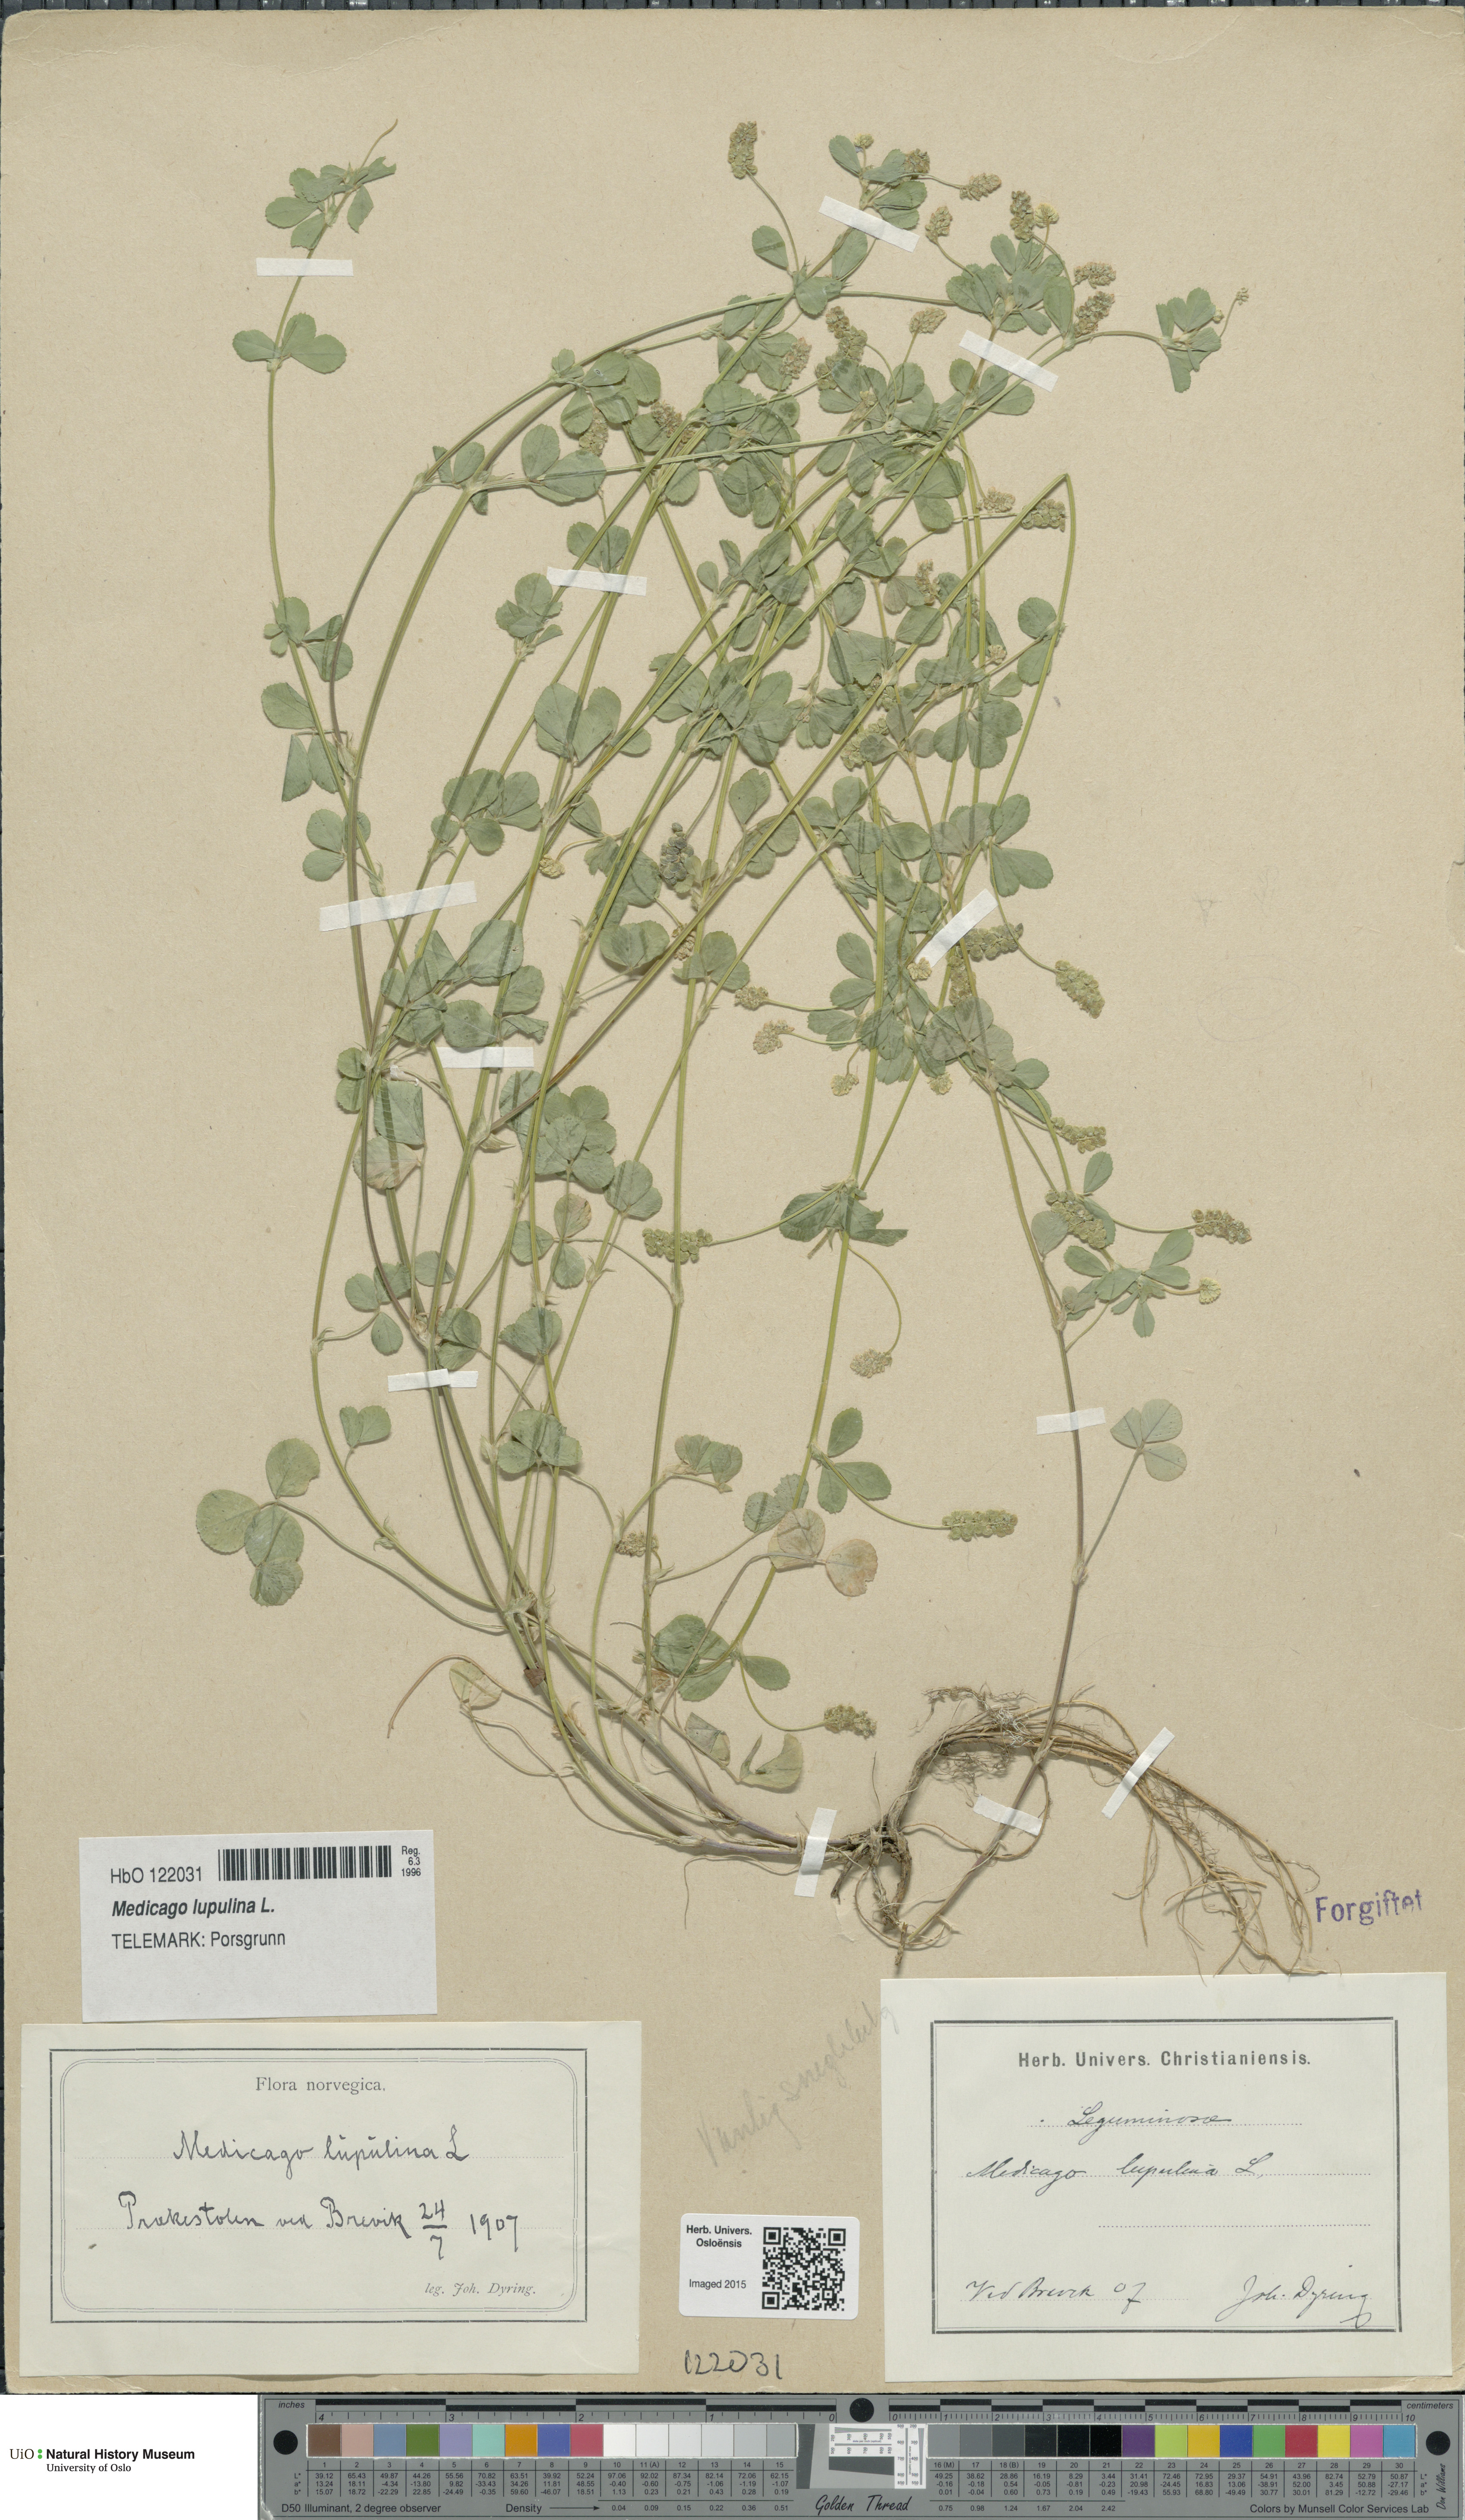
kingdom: Plantae
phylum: Tracheophyta
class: Magnoliopsida
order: Fabales
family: Fabaceae
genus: Medicago
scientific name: Medicago lupulina
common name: Black medick
